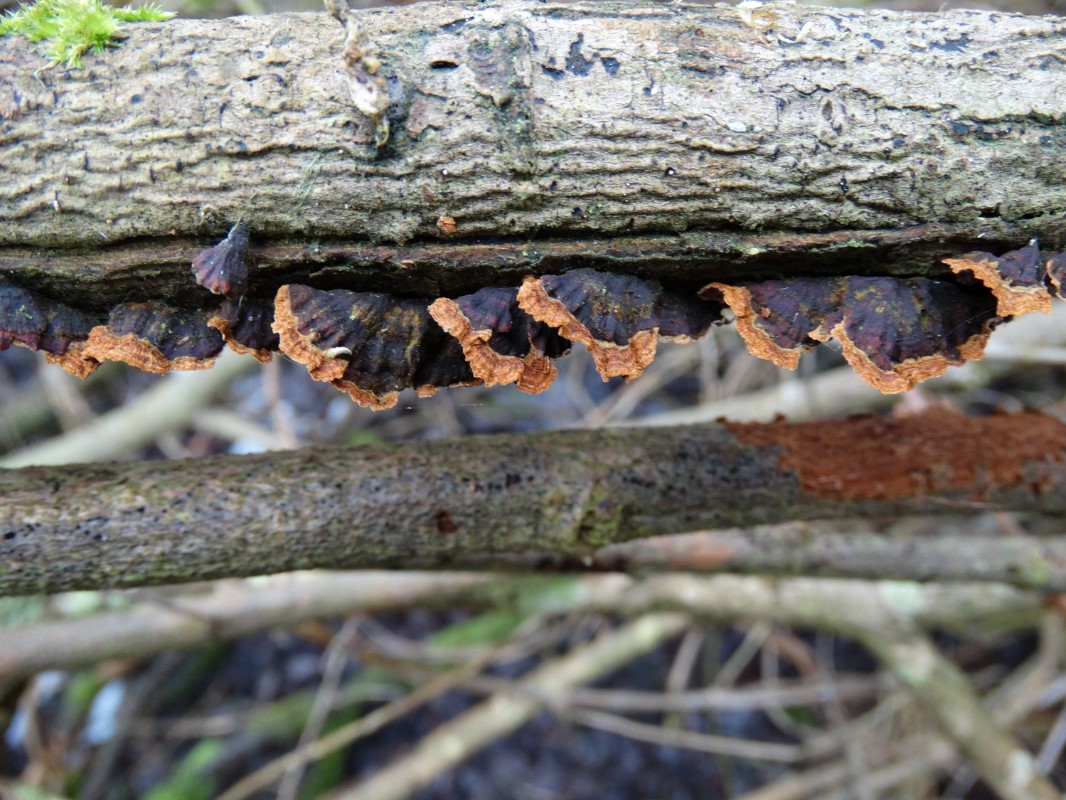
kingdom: Fungi
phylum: Basidiomycota
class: Agaricomycetes
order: Hymenochaetales
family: Hymenochaetaceae
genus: Hydnoporia
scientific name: Hydnoporia tabacina
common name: tobaksbrun ruslædersvamp
